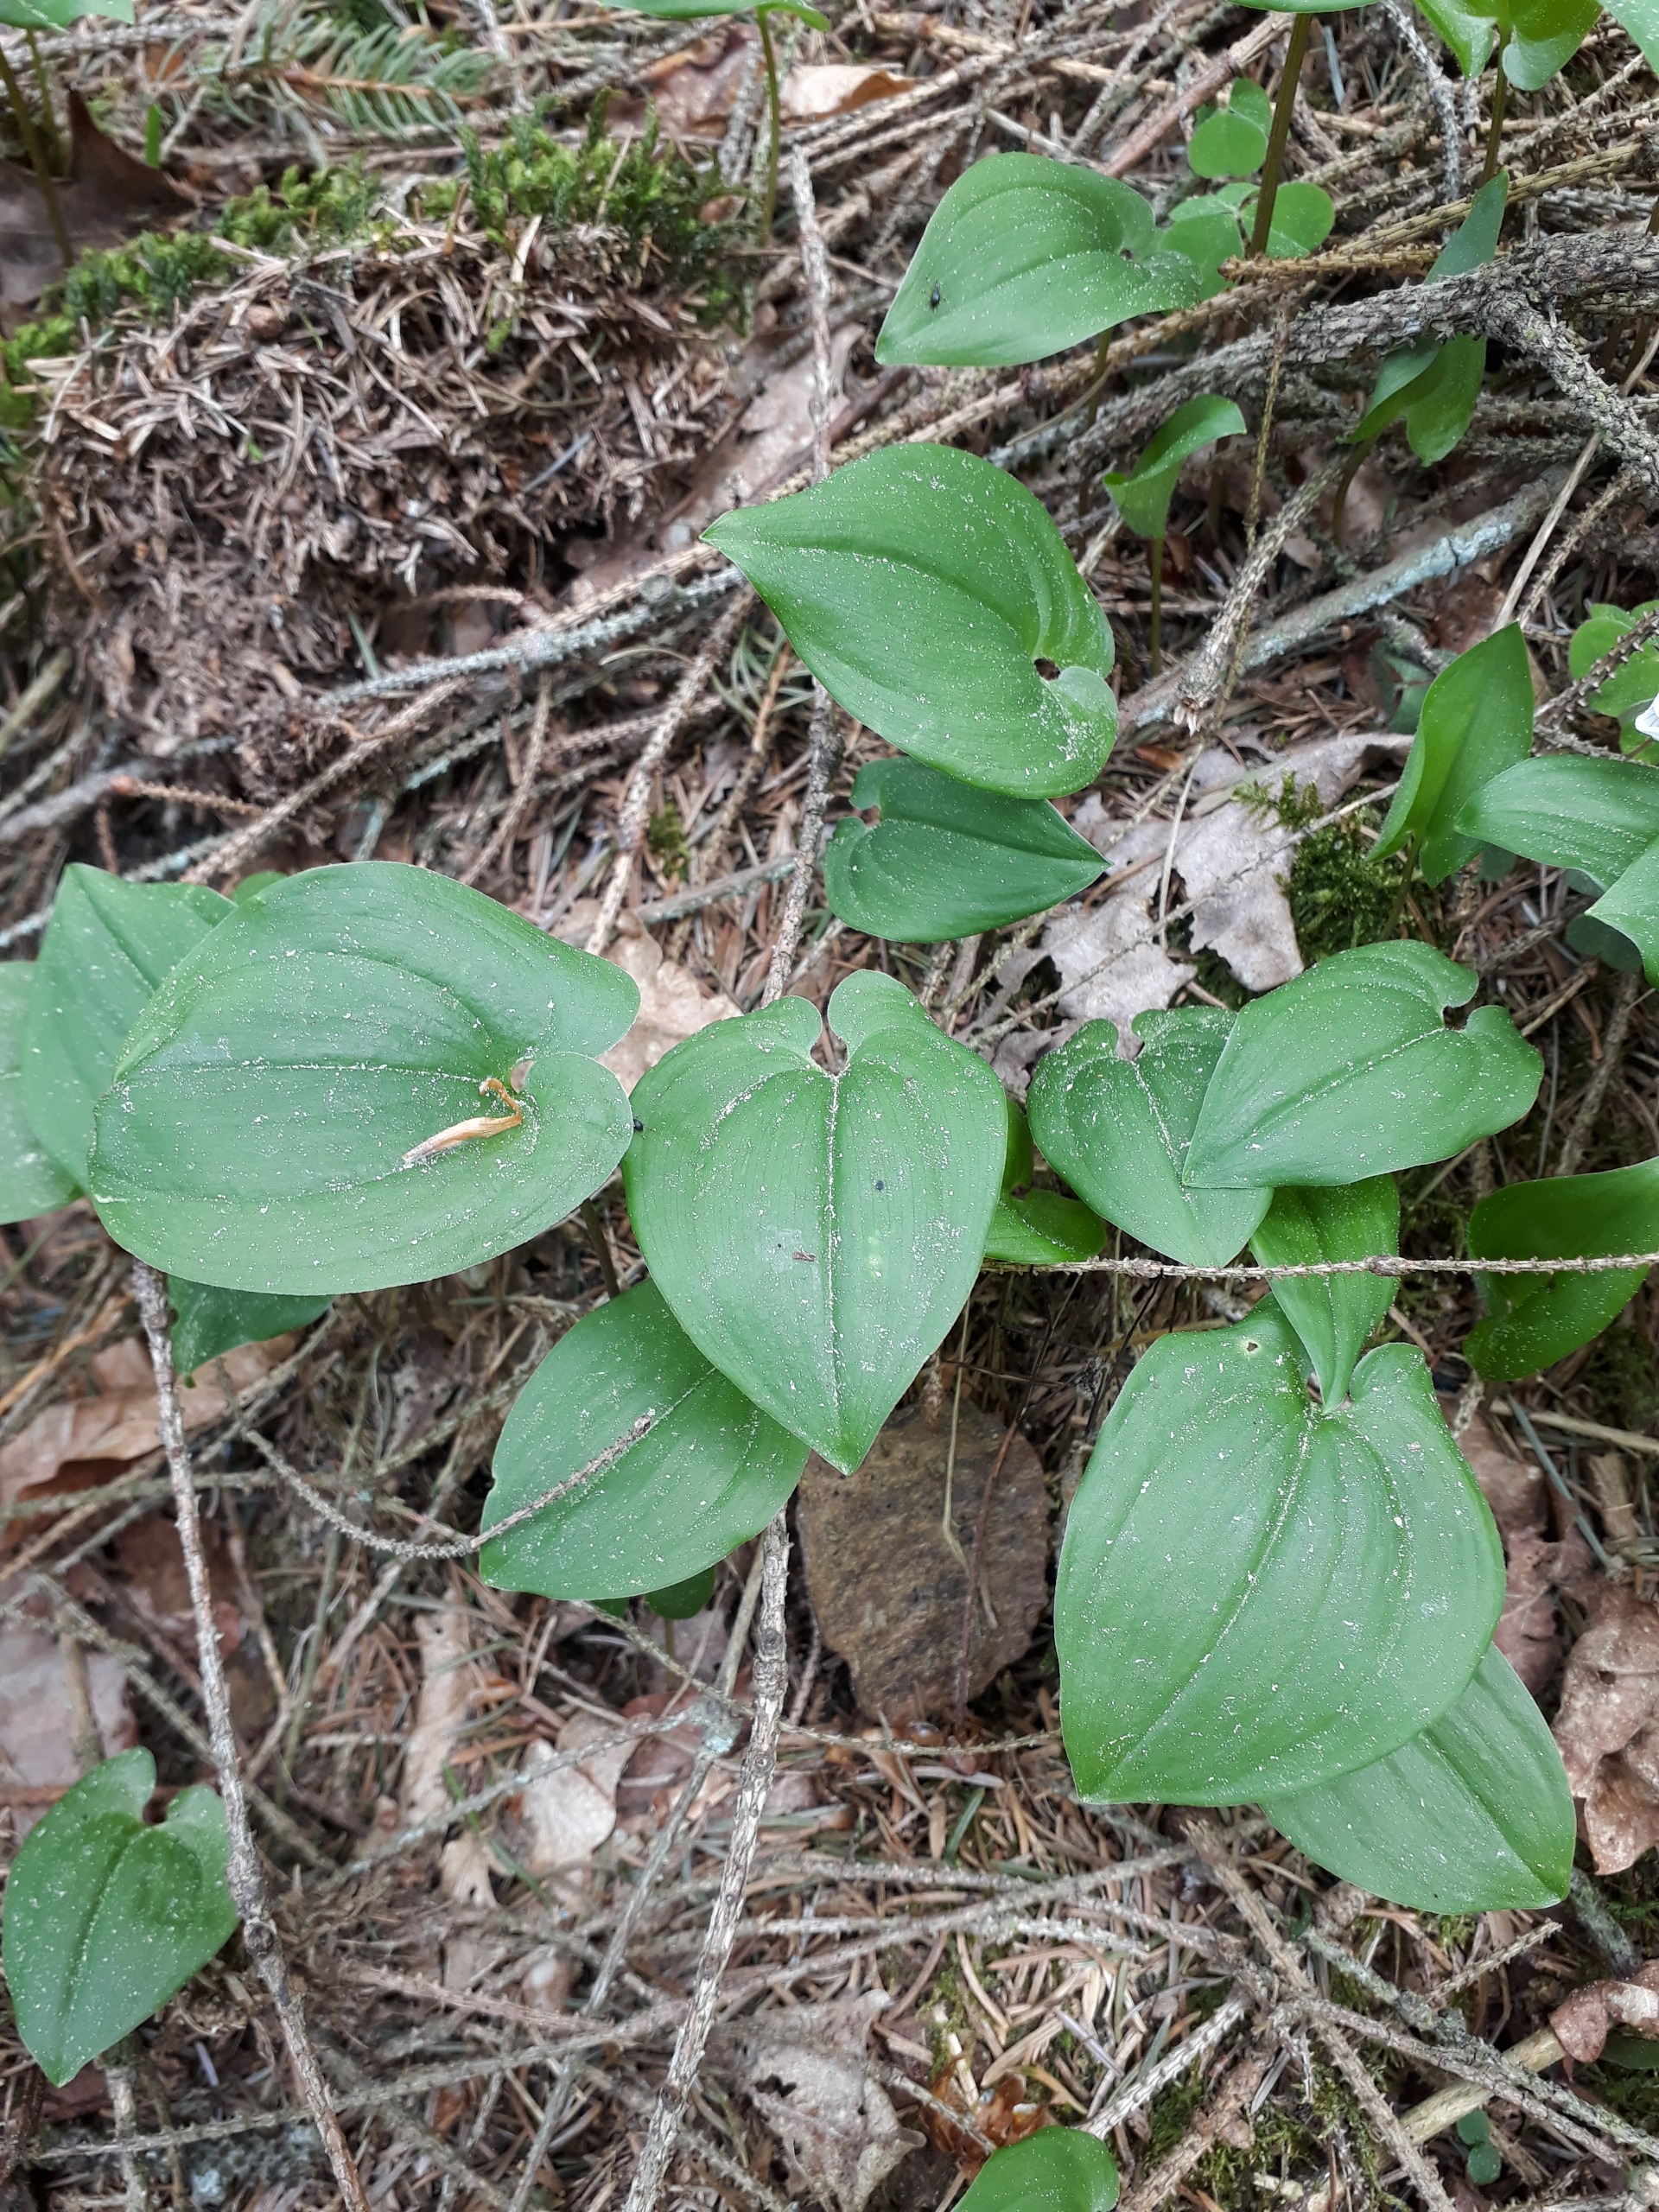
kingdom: Plantae
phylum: Tracheophyta
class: Liliopsida
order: Asparagales
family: Asparagaceae
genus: Maianthemum
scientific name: Maianthemum bifolium
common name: Majblomst
